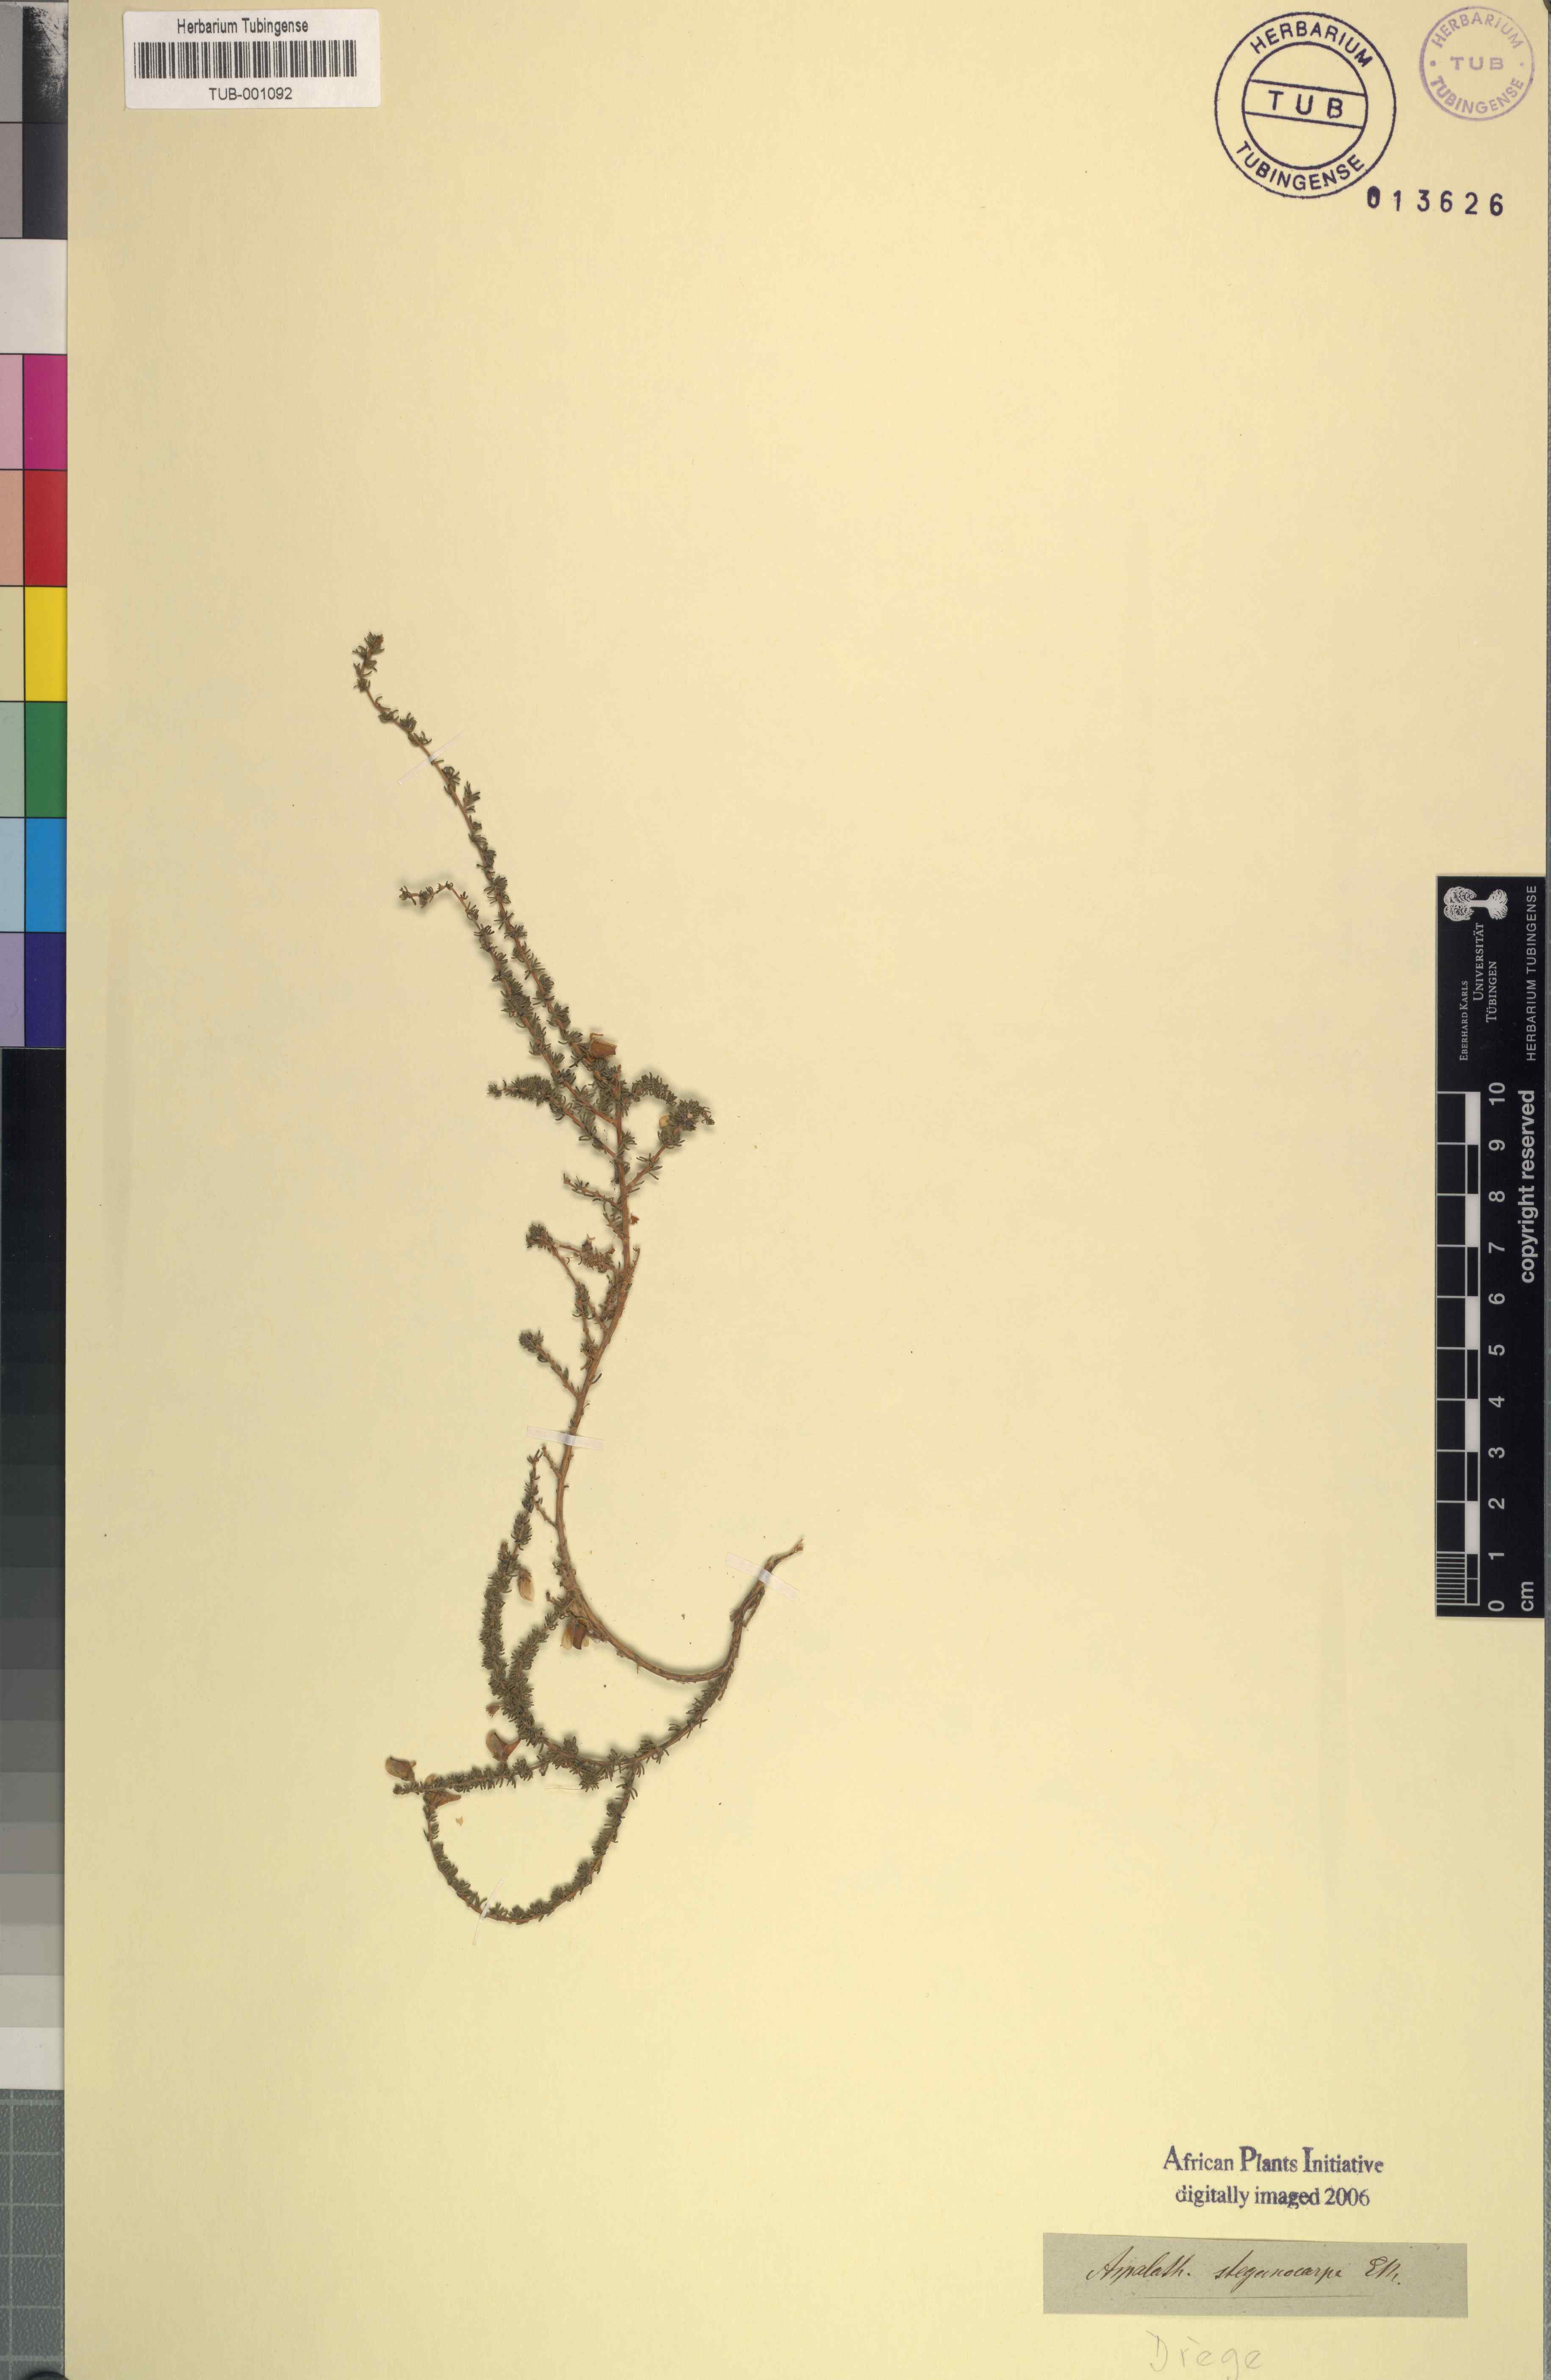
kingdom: Plantae
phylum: Tracheophyta
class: Magnoliopsida
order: Fabales
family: Fabaceae
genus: Aspalathus
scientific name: Aspalathus
